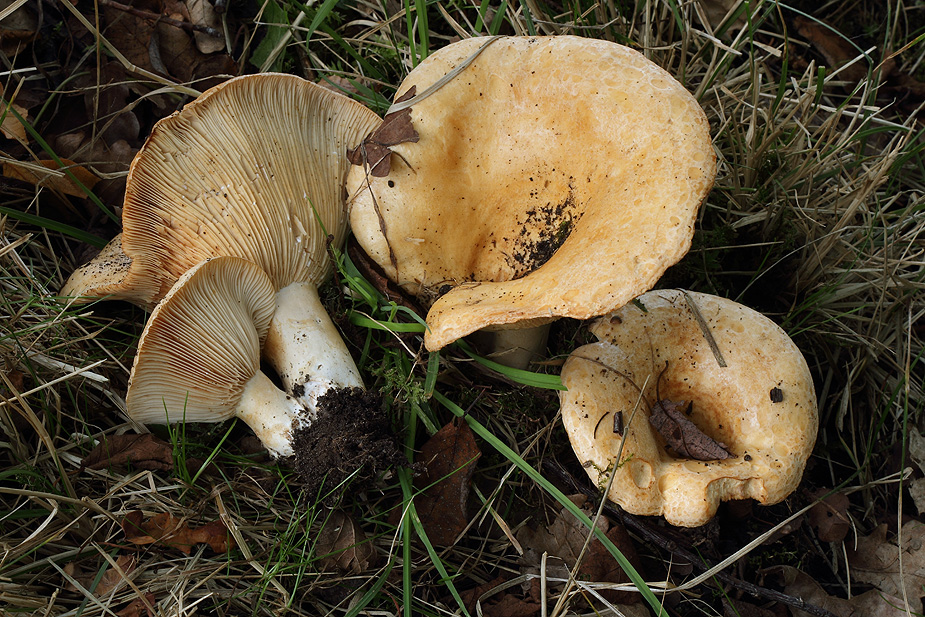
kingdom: Fungi
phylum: Basidiomycota
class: Agaricomycetes
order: Russulales
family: Russulaceae
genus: Lactarius
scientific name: Lactarius evosmus
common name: bæltet mælkehat
